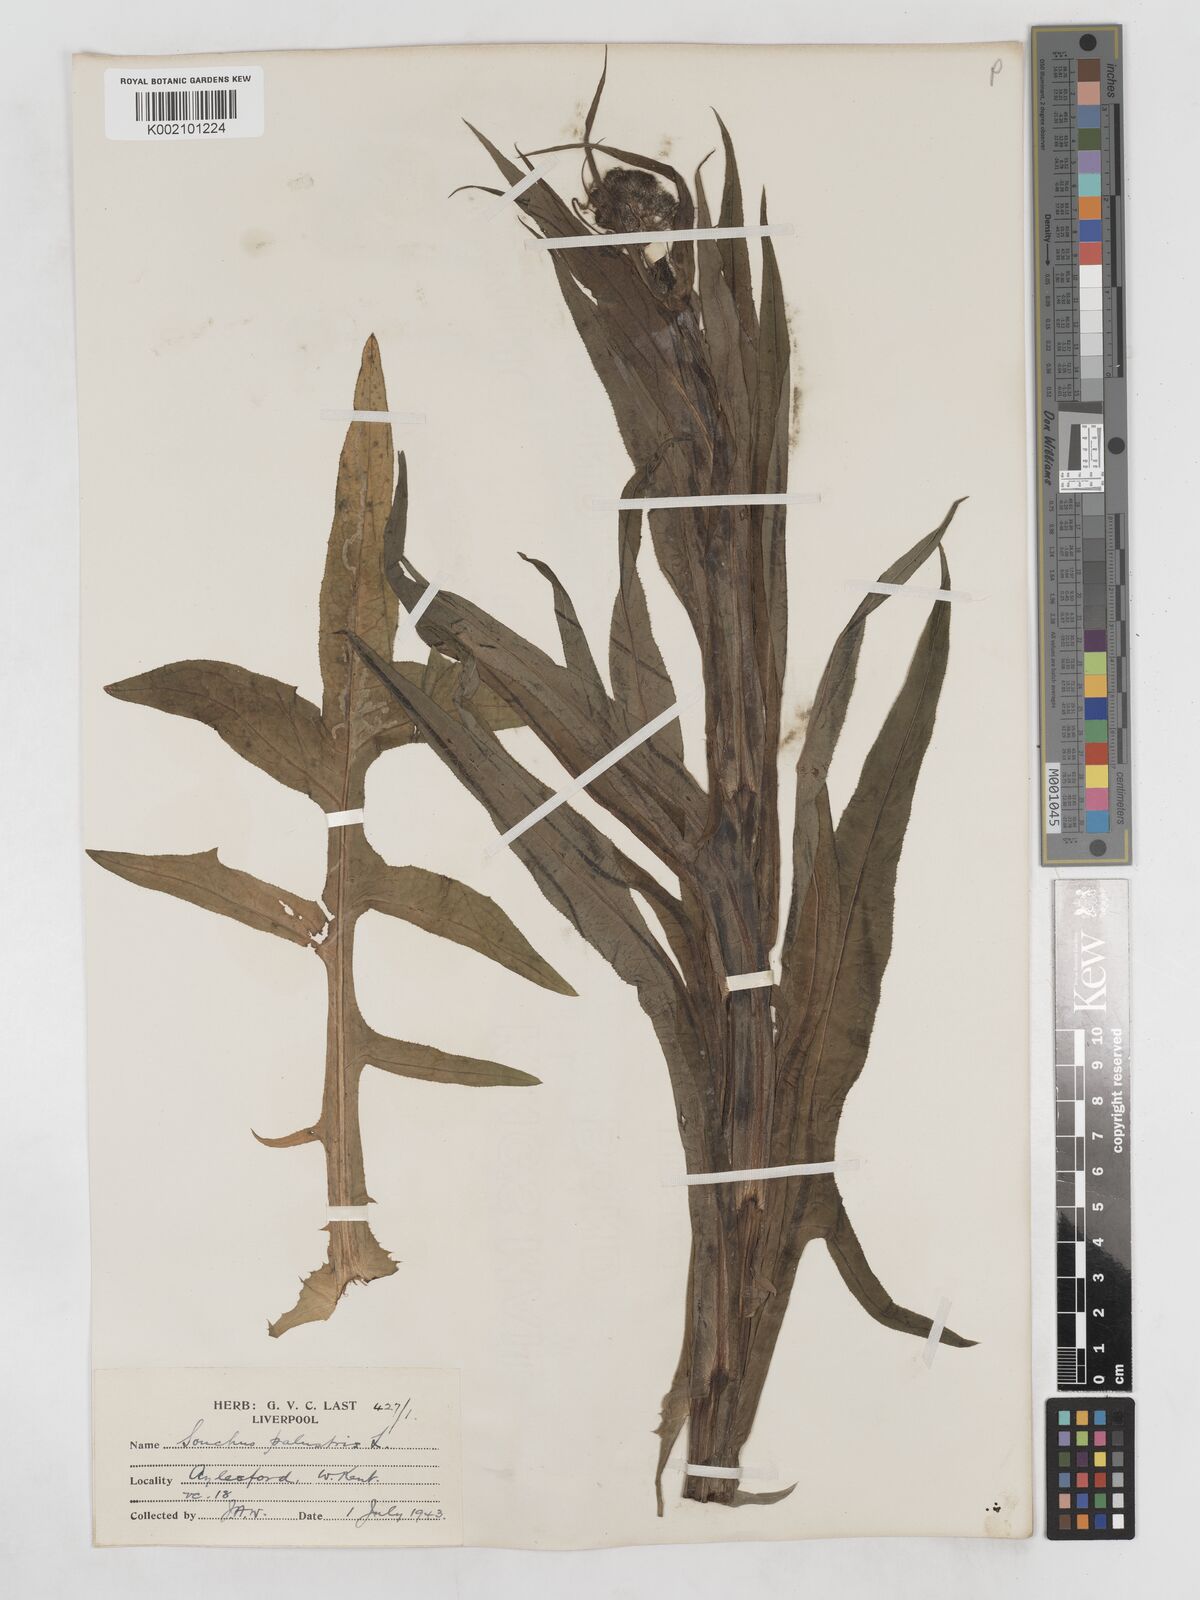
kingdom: Plantae
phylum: Tracheophyta
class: Magnoliopsida
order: Asterales
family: Asteraceae
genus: Sonchus
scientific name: Sonchus palustris
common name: Marsh sow-thistle
